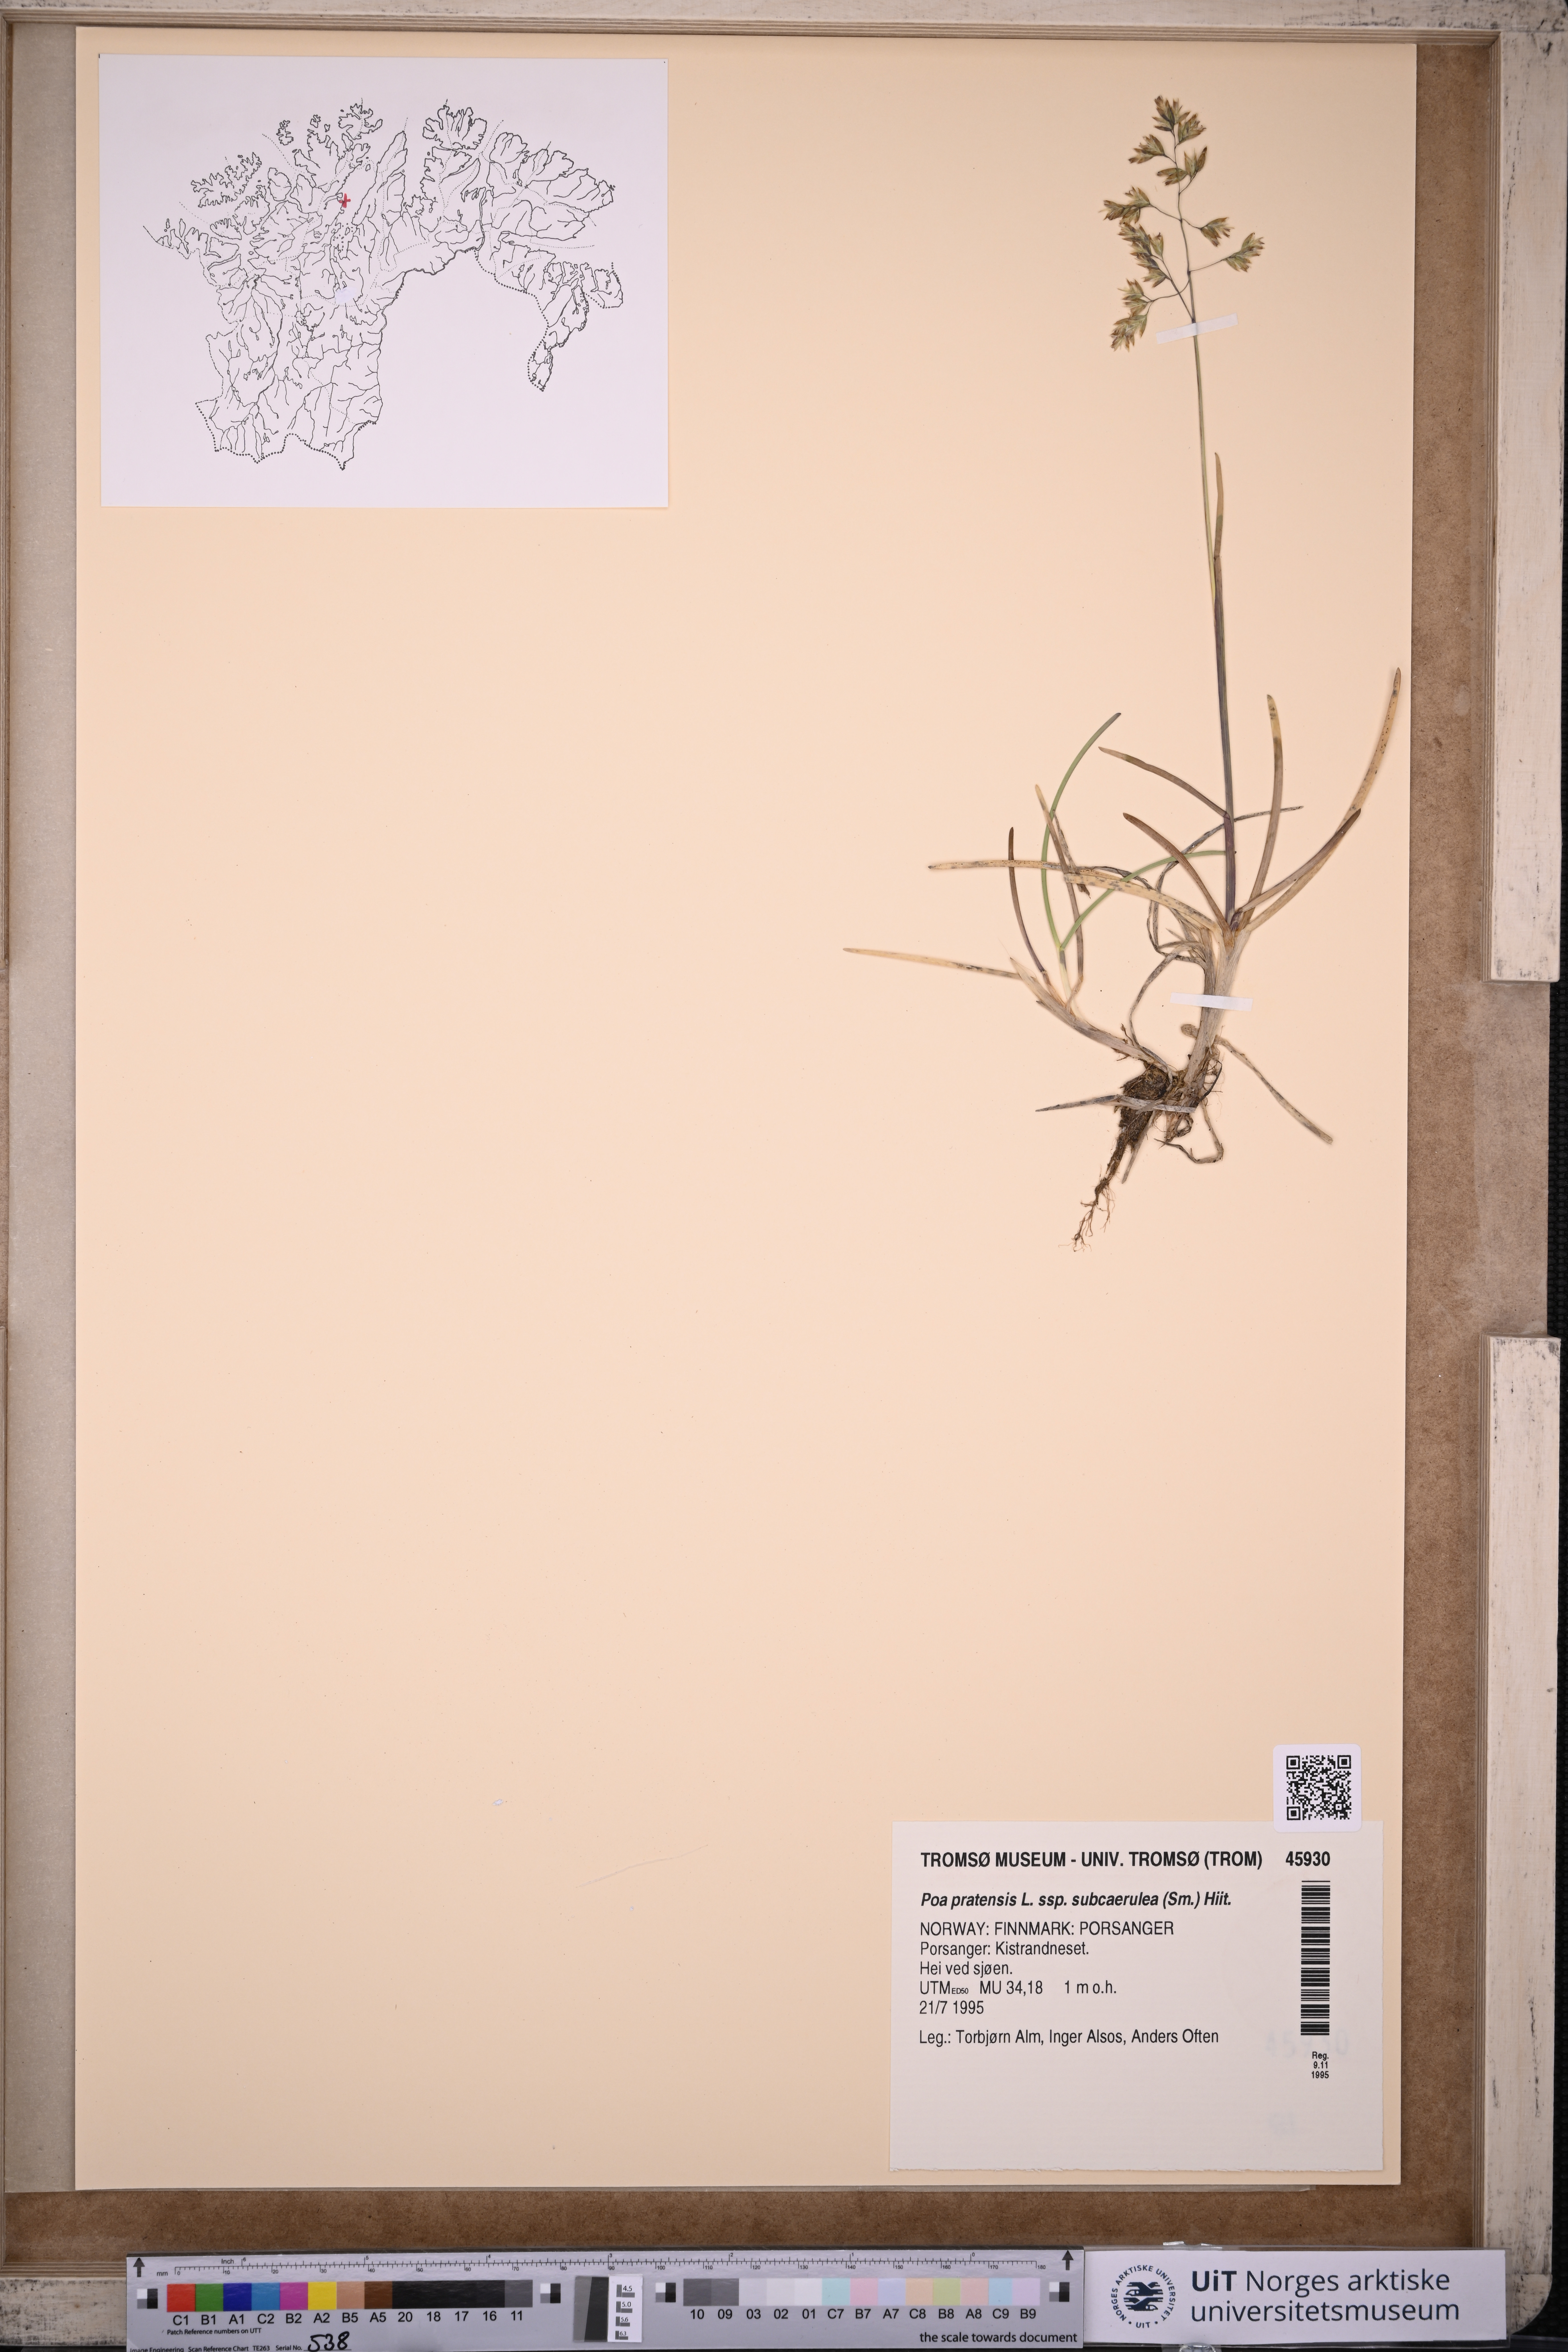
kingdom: Plantae
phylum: Tracheophyta
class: Liliopsida
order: Poales
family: Poaceae
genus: Poa
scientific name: Poa humilis
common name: Spreading meadow-grass
